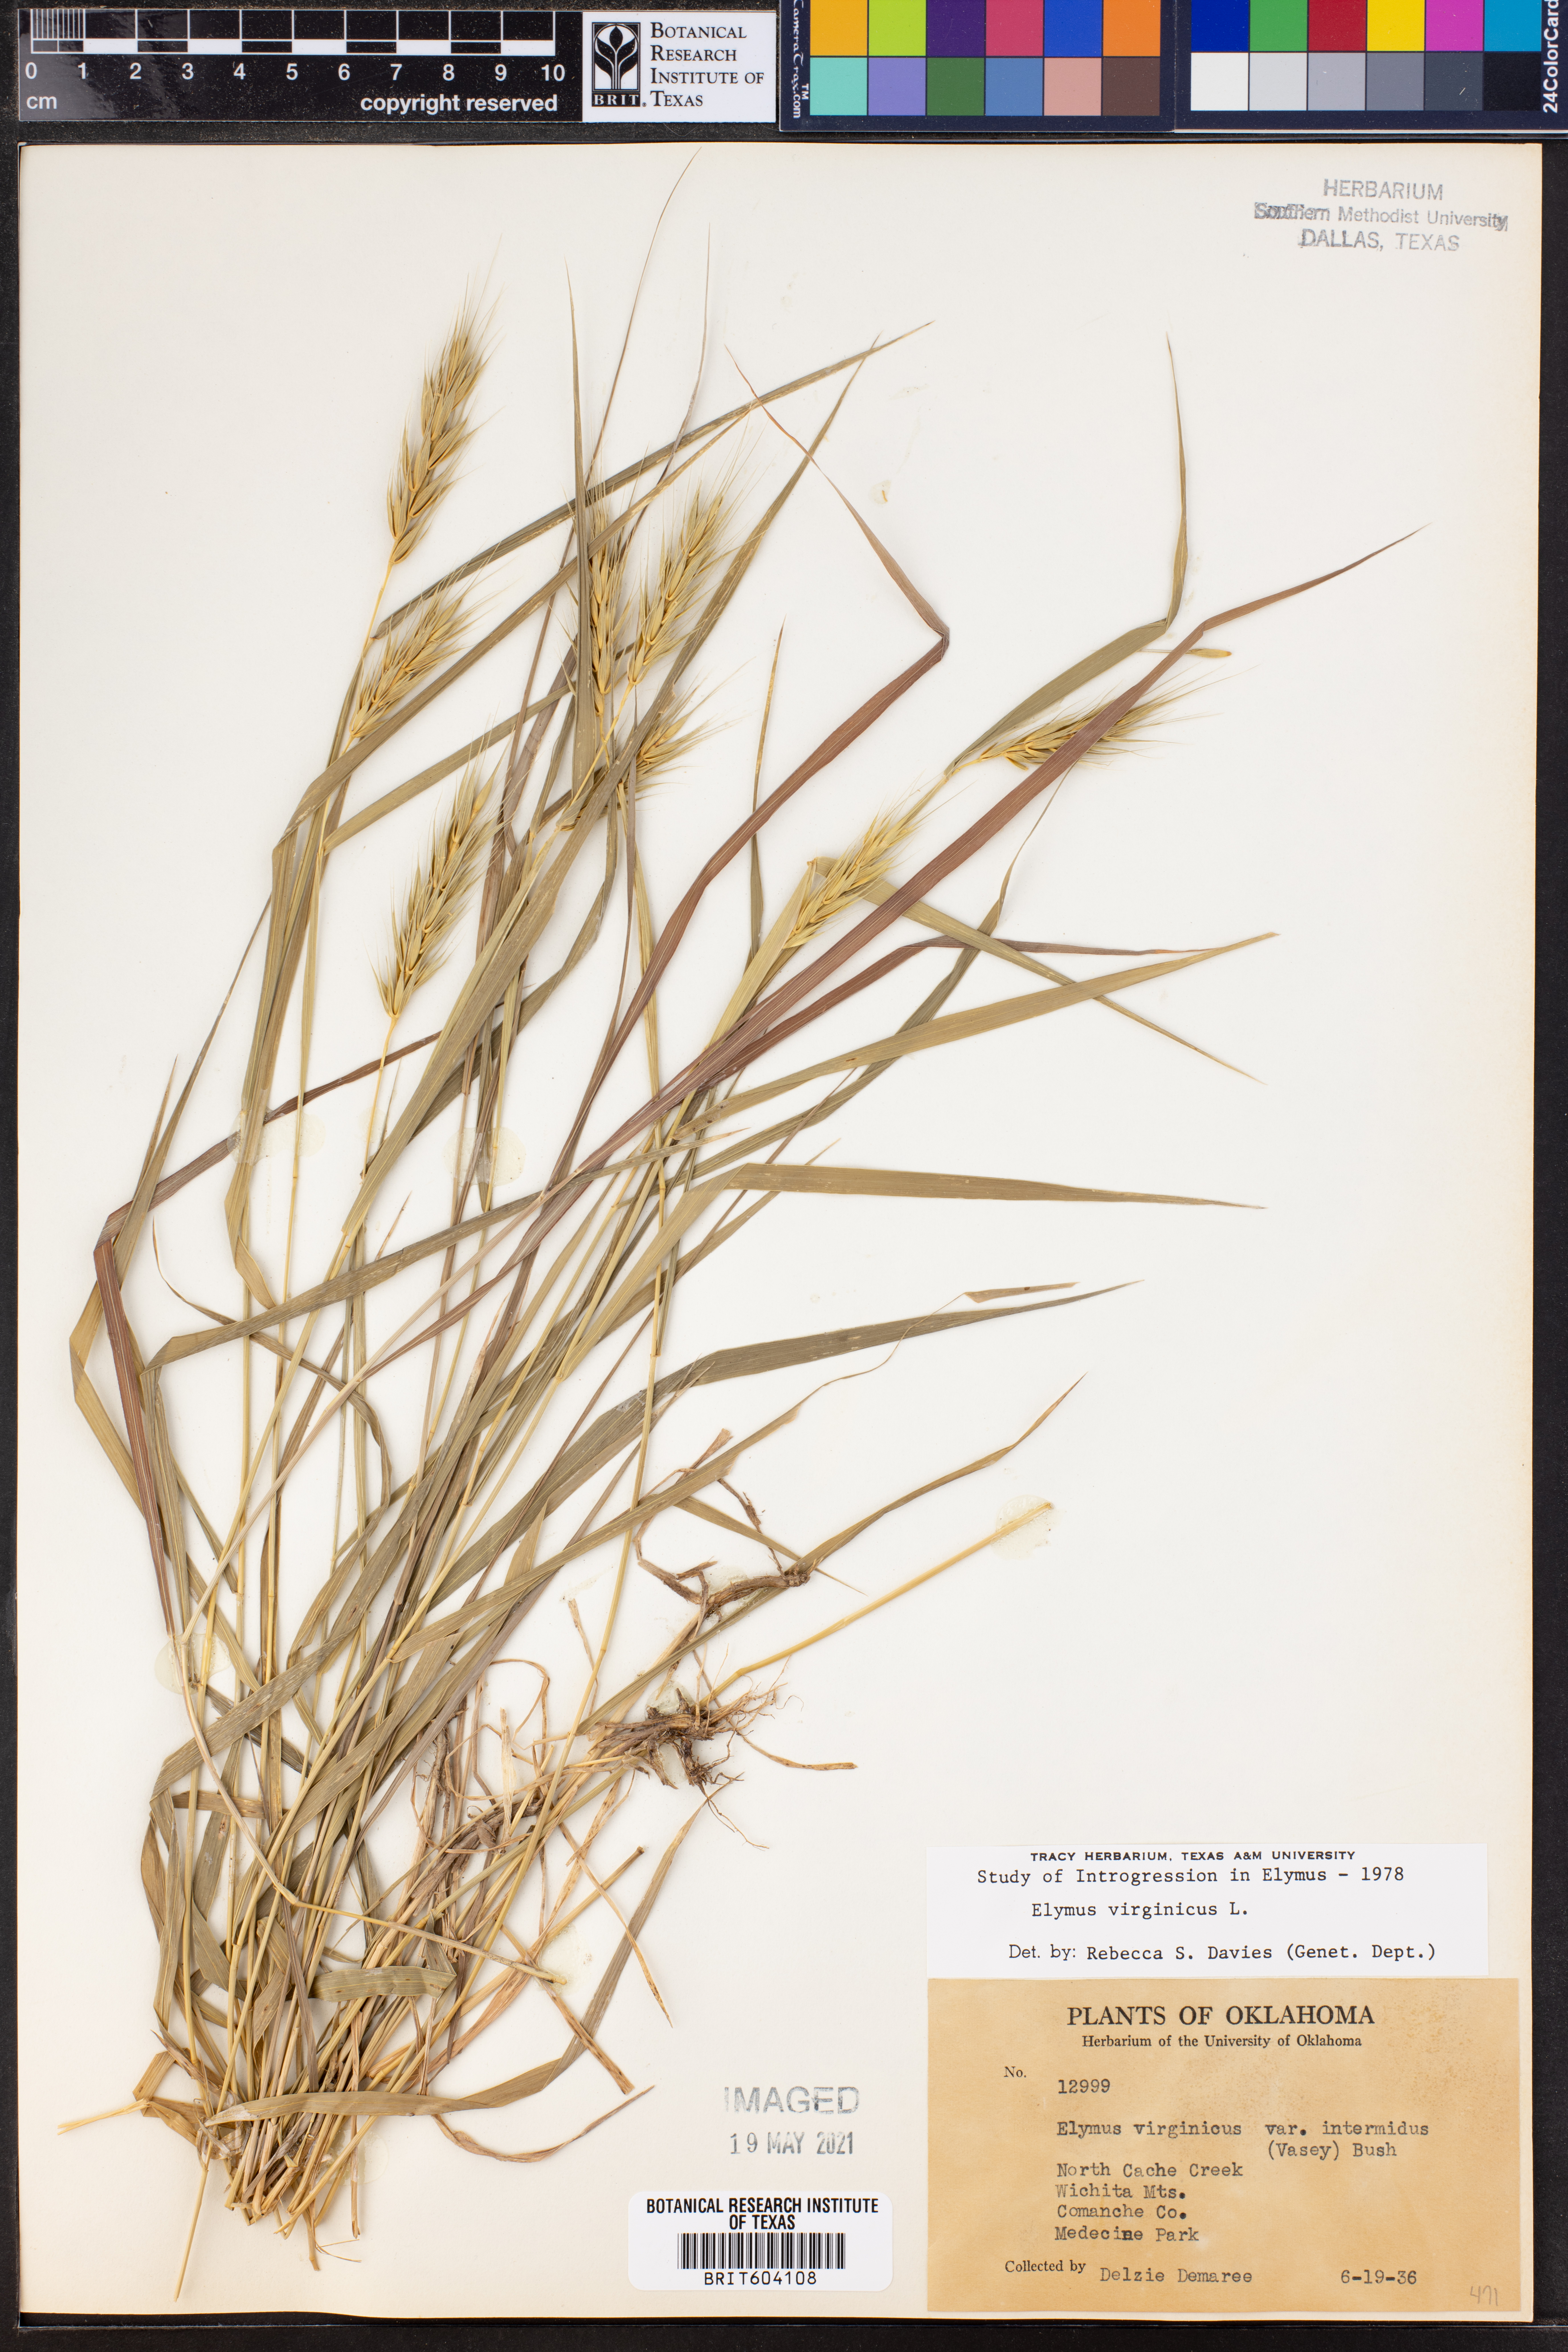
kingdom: Plantae
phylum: Tracheophyta
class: Liliopsida
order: Poales
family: Poaceae
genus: Elymus
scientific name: Elymus virginicus
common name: Common eastern wildrye
